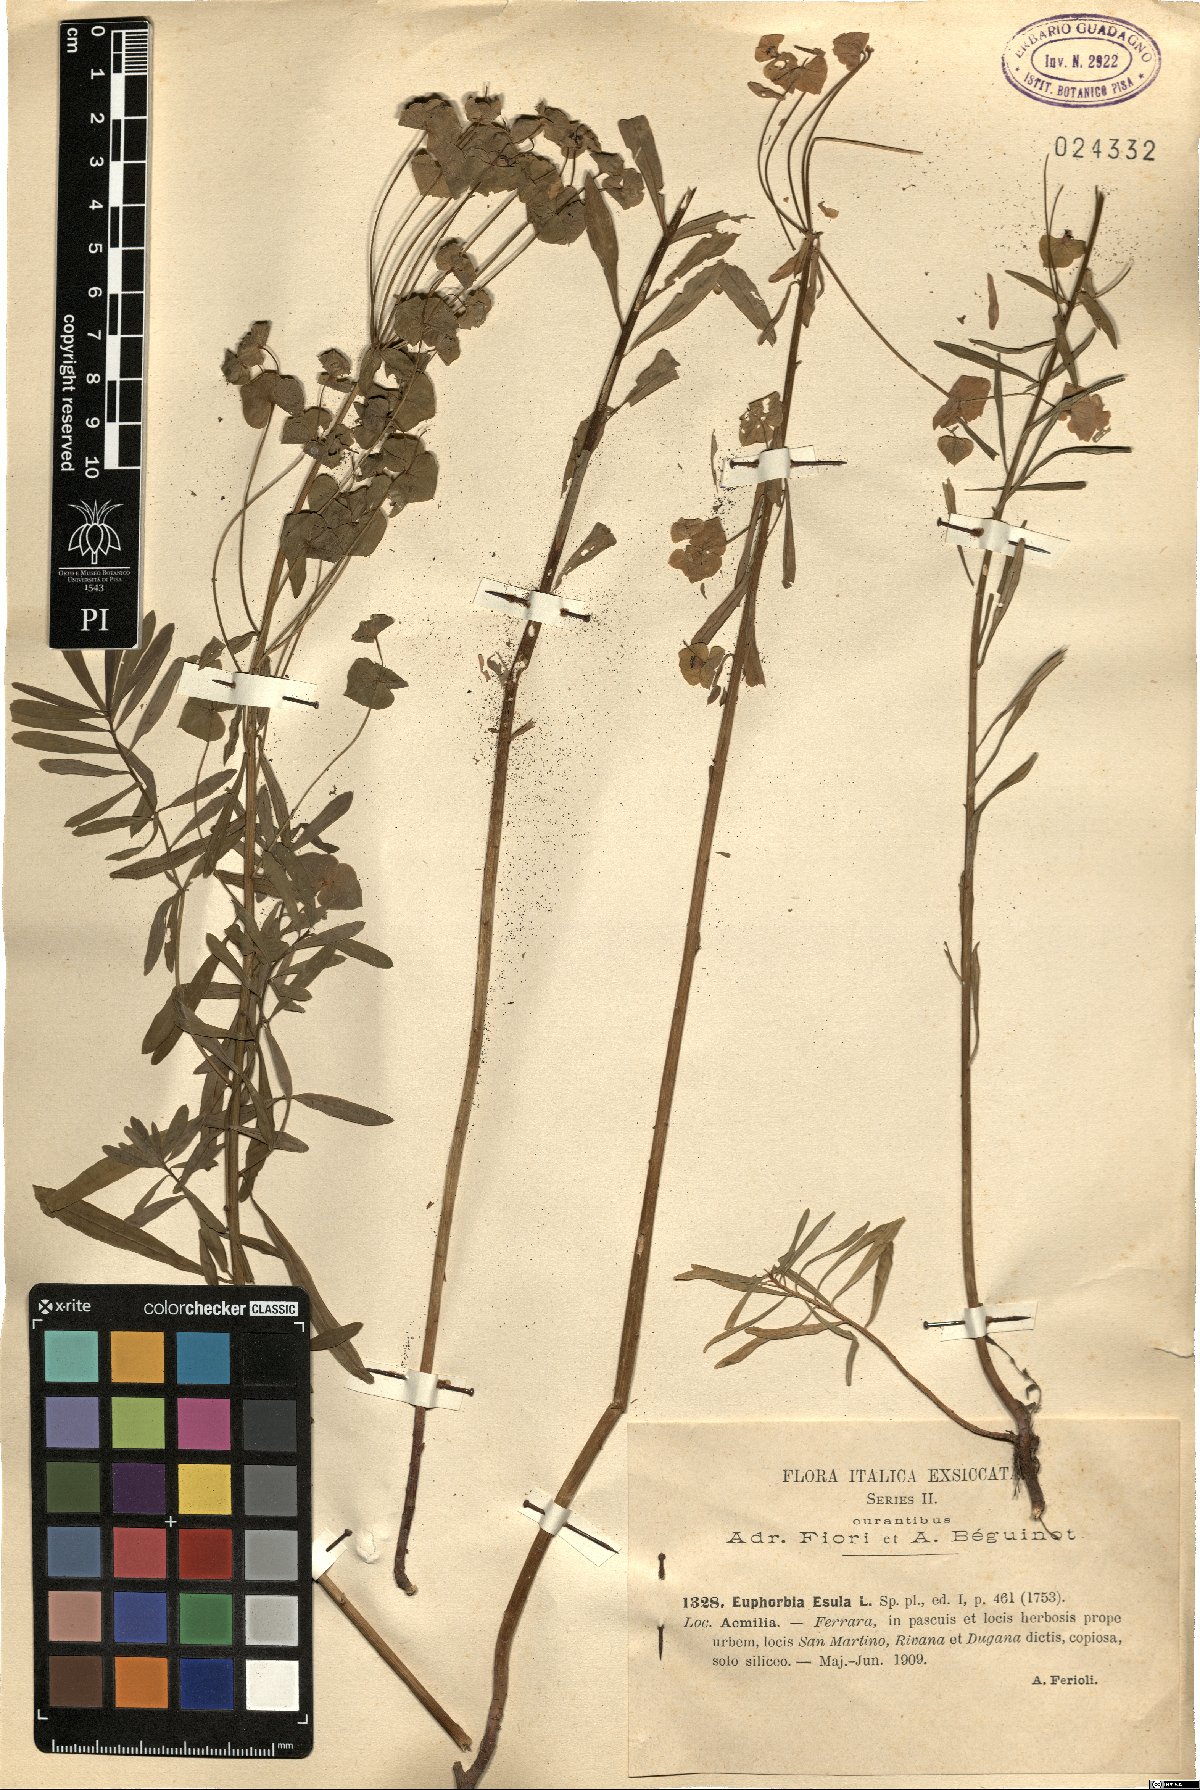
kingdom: Plantae
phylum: Tracheophyta
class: Magnoliopsida
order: Malpighiales
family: Euphorbiaceae
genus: Euphorbia
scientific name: Euphorbia esula
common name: Leafy spurge
